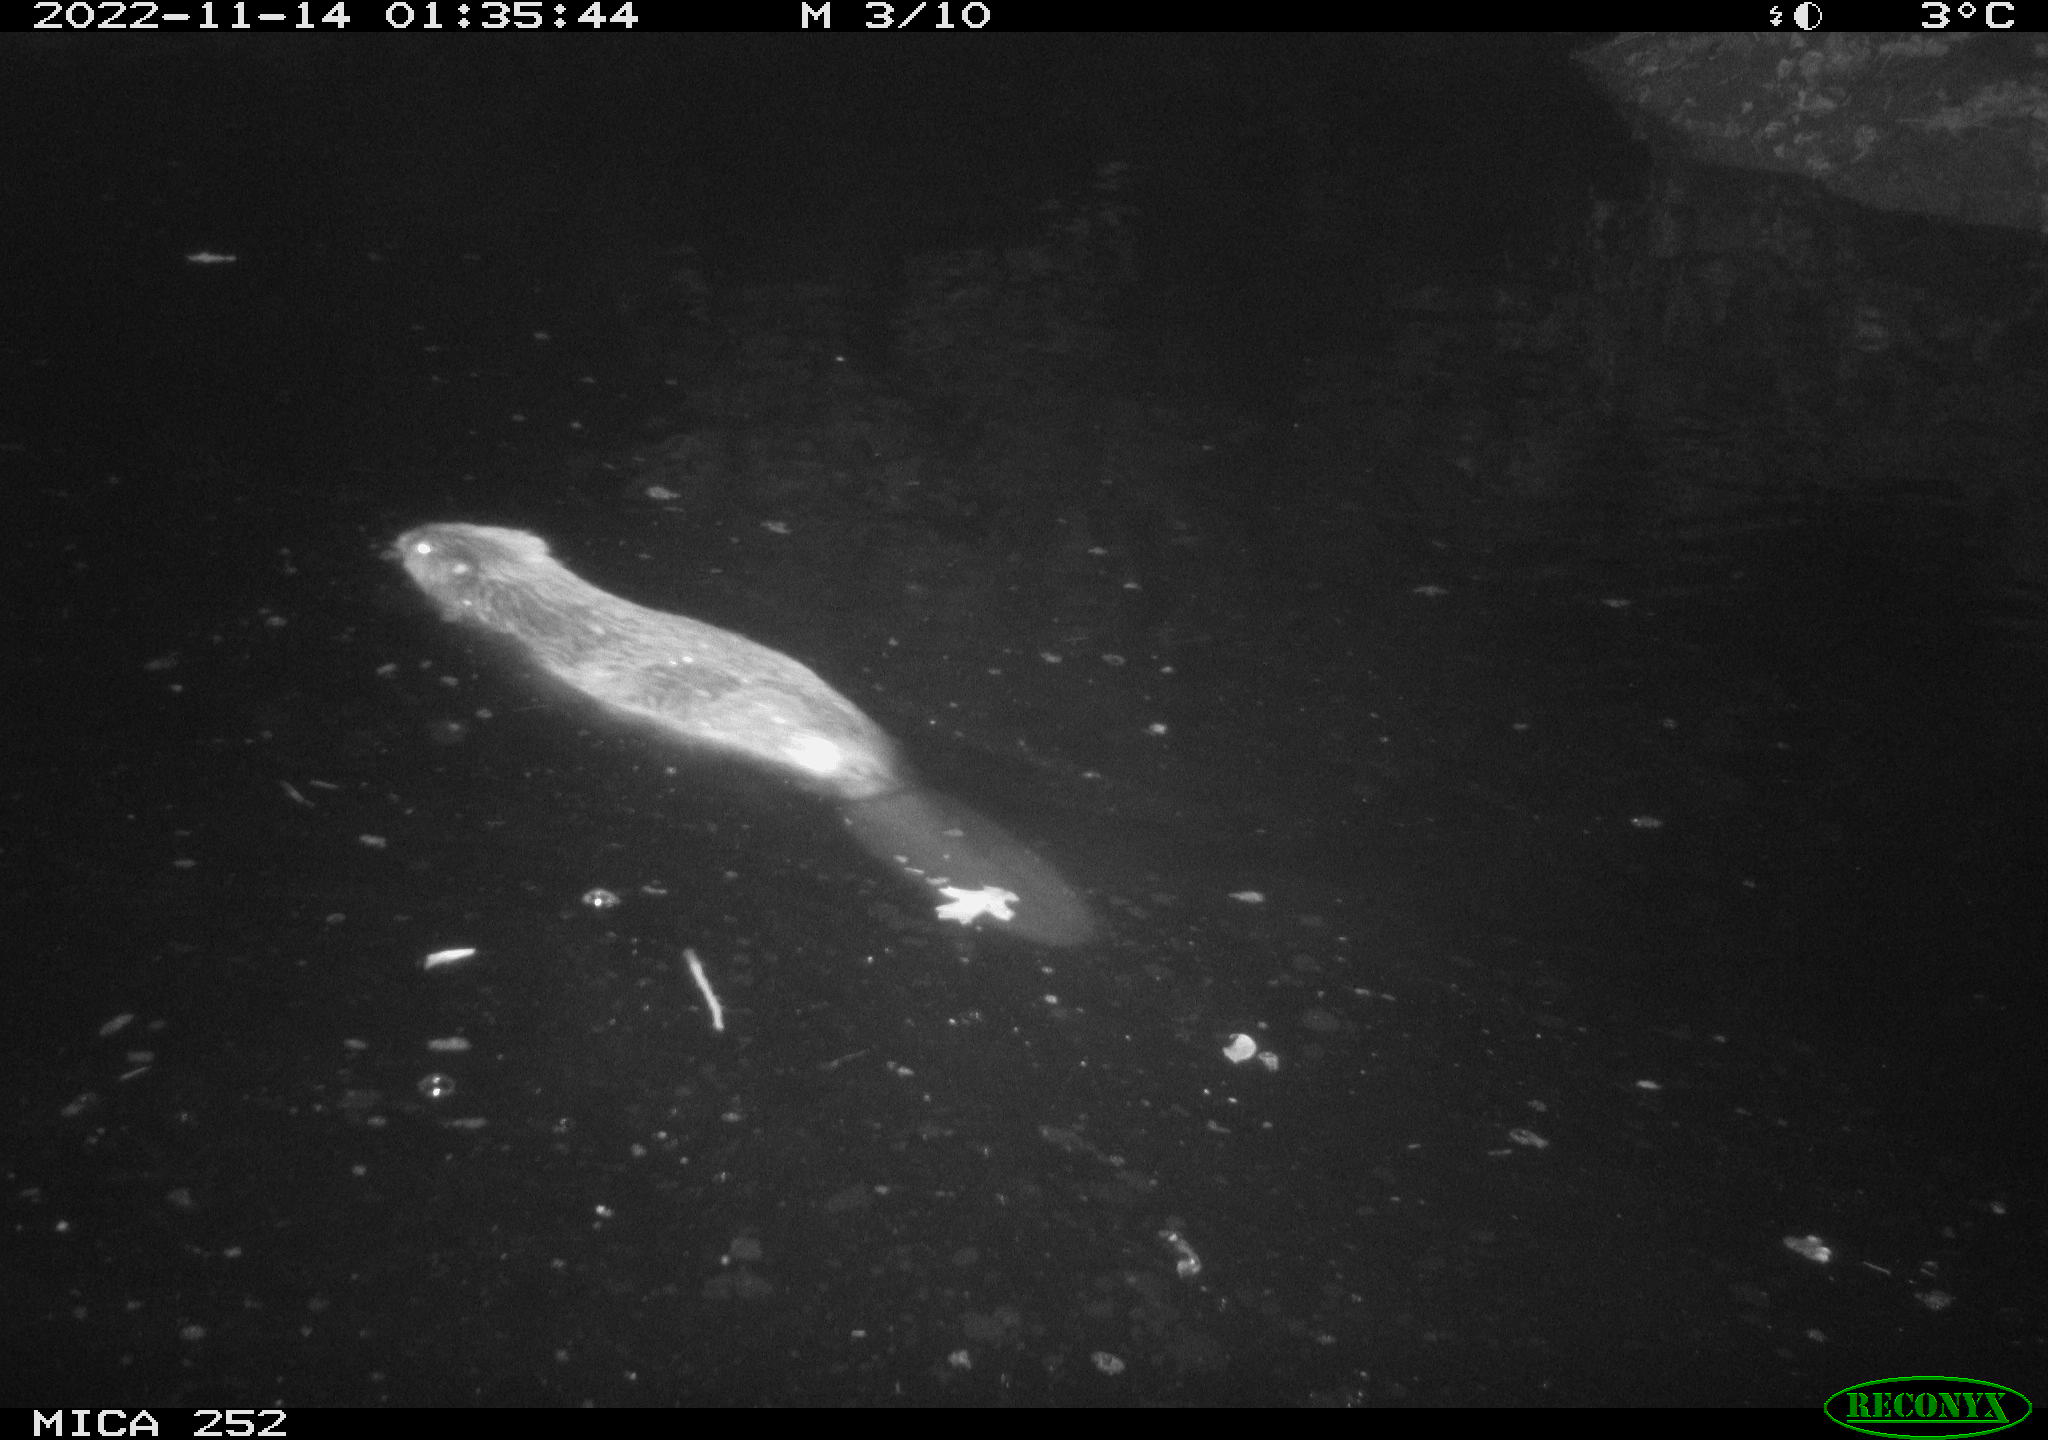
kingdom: Animalia
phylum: Chordata
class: Mammalia
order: Rodentia
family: Castoridae
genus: Castor
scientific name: Castor fiber
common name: Eurasian beaver
